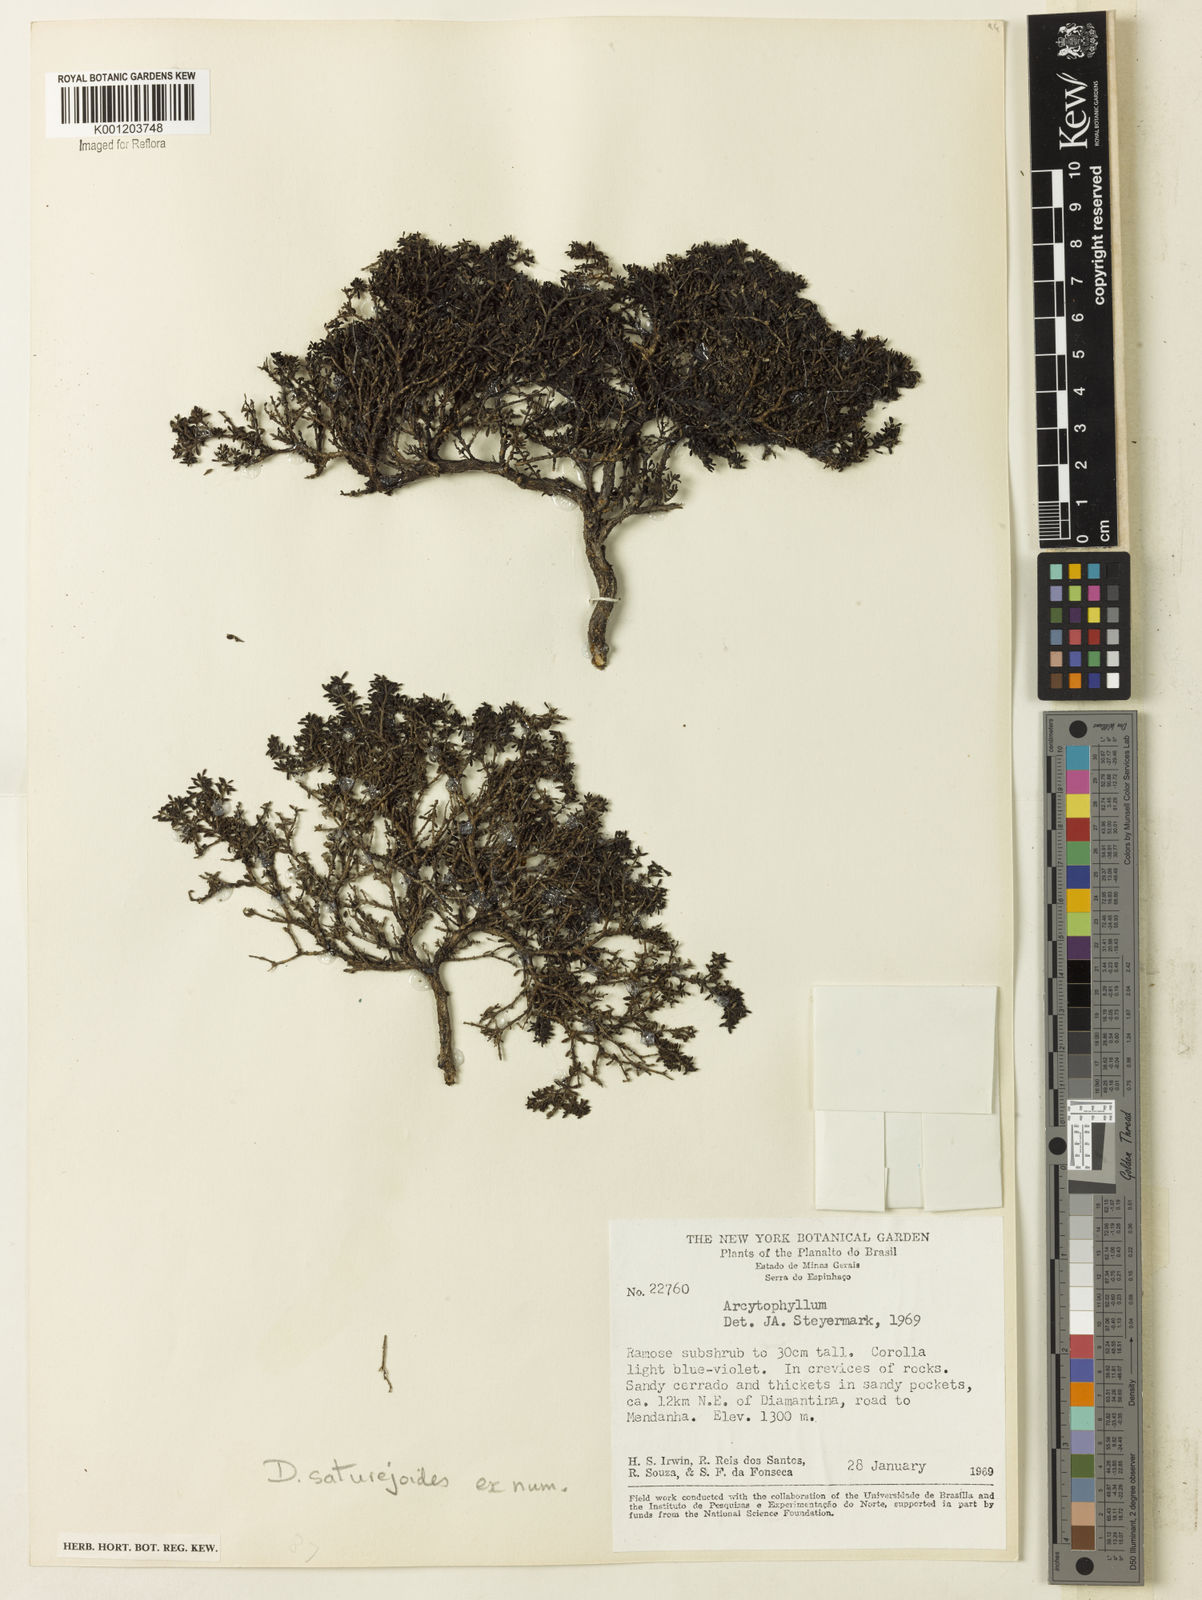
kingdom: Plantae
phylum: Tracheophyta
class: Magnoliopsida
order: Gentianales
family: Rubiaceae
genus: Declieuxia
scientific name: Declieuxia
